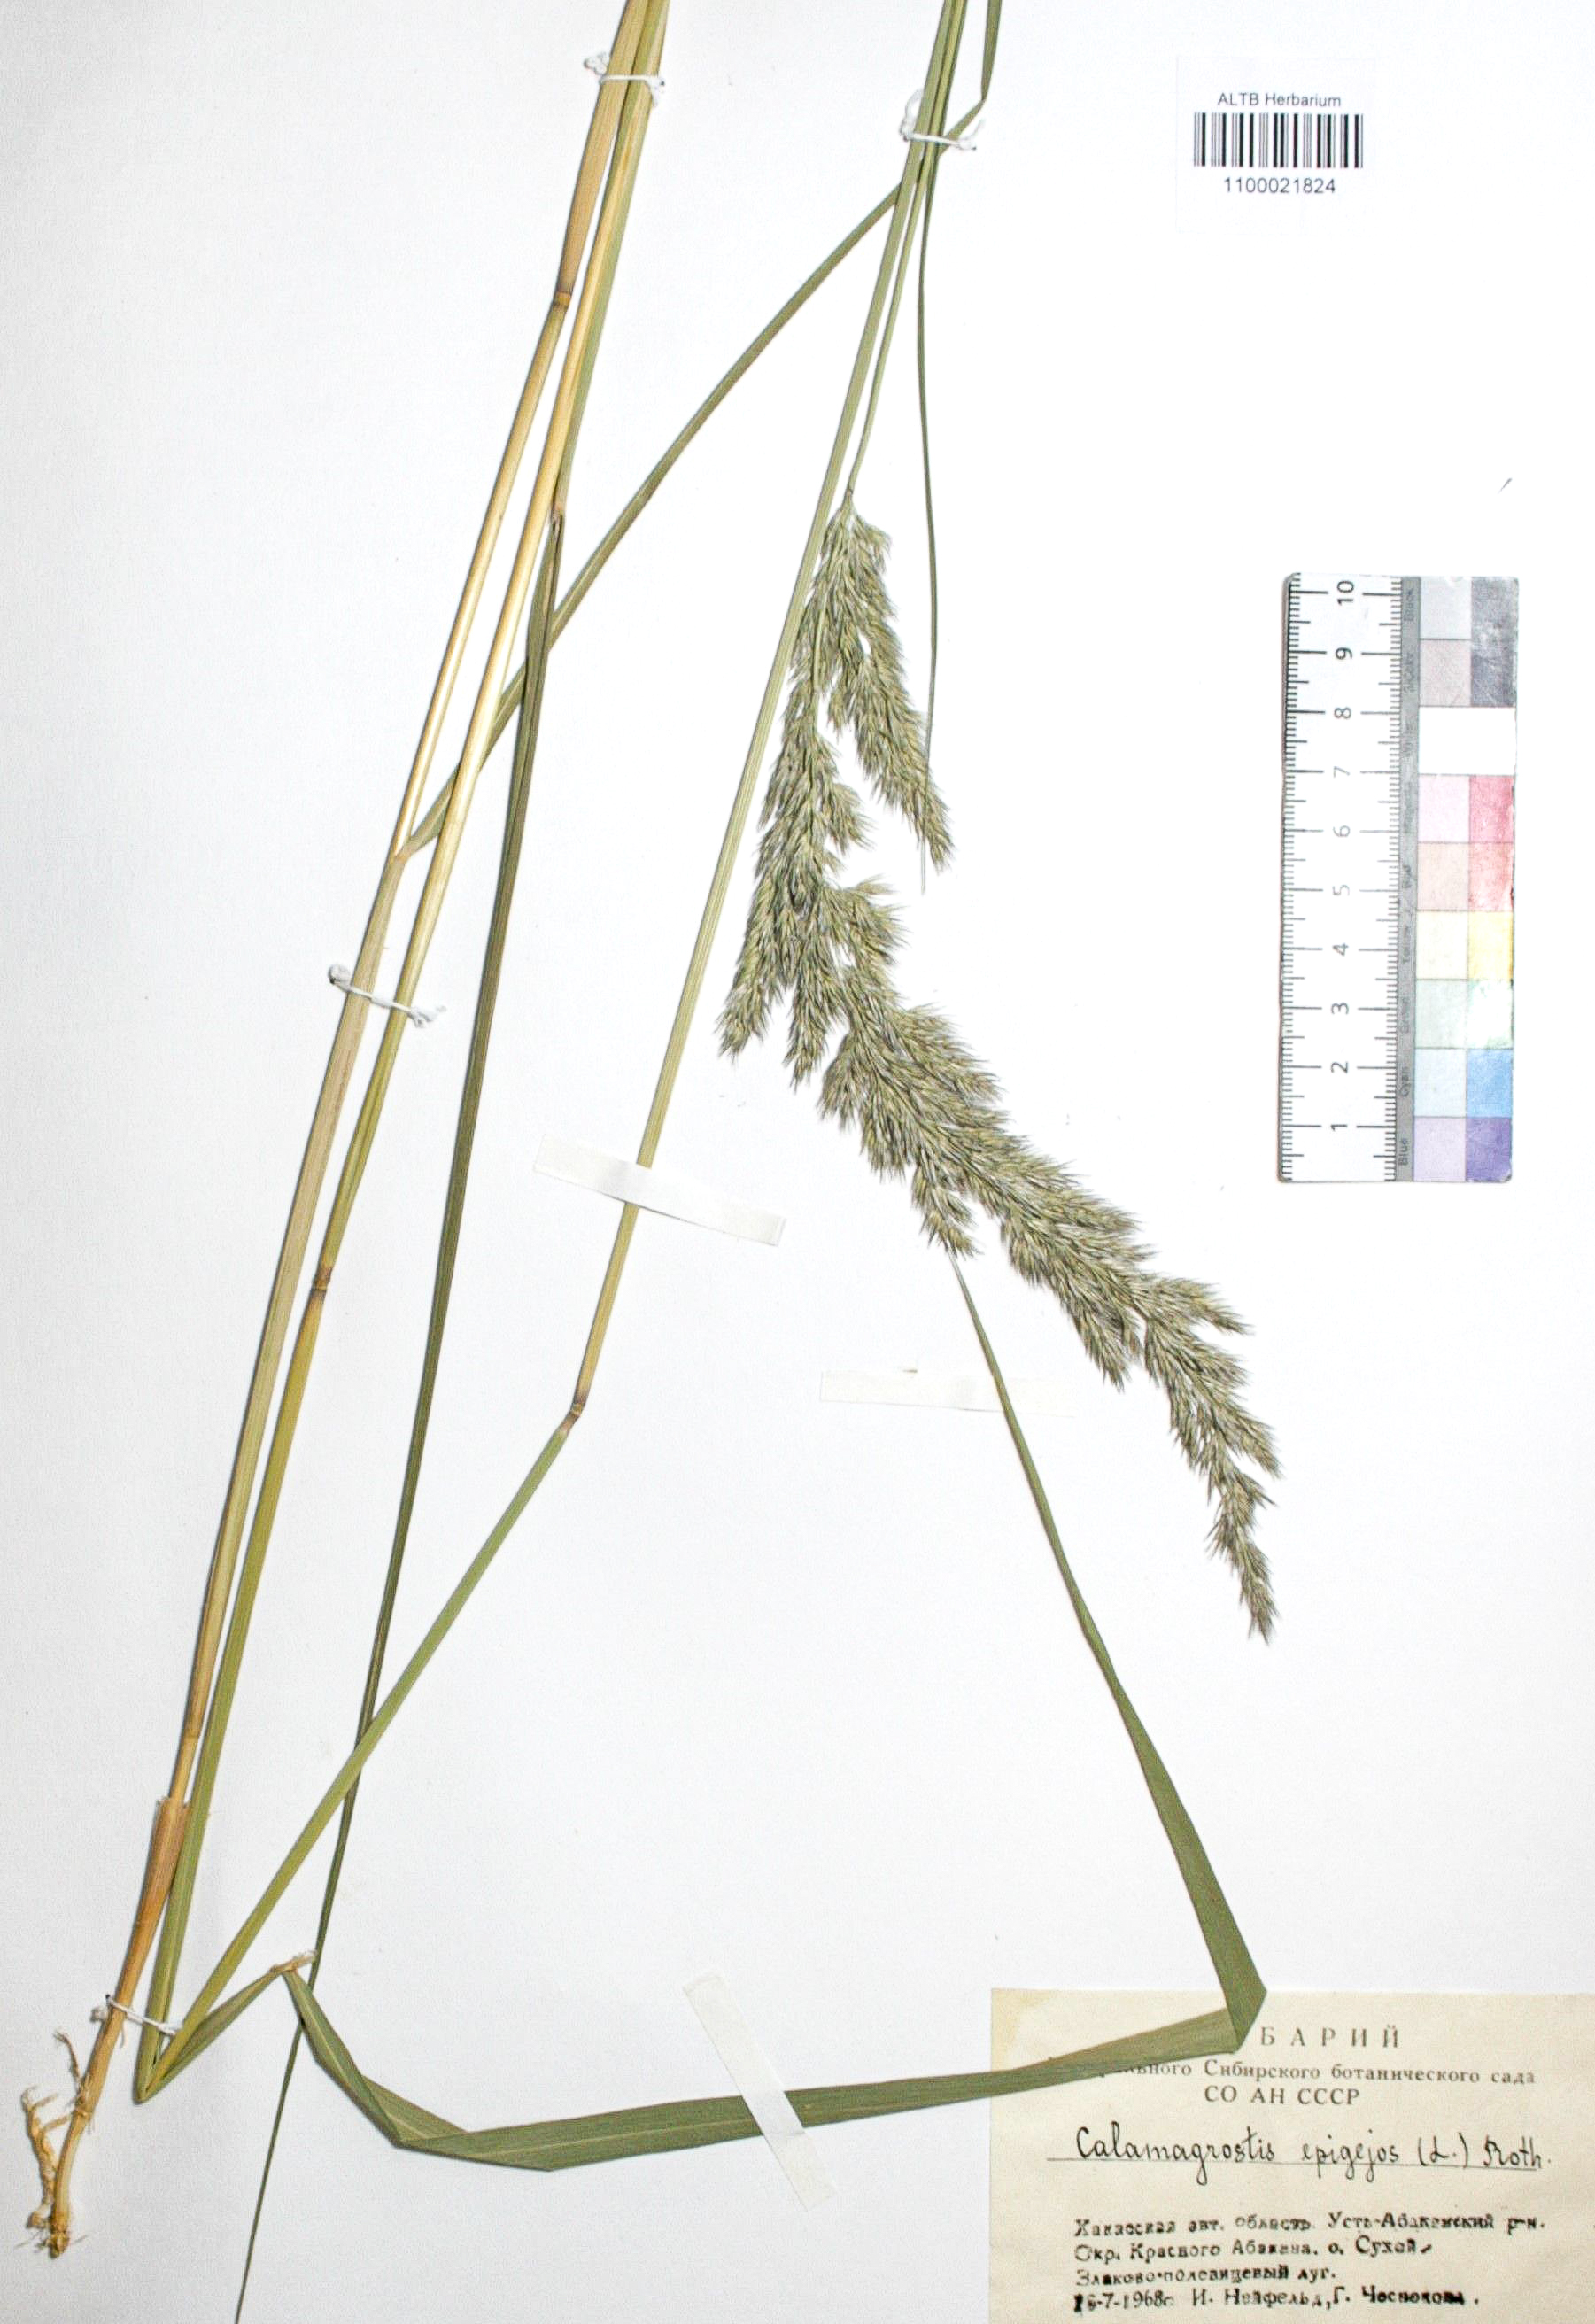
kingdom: Plantae
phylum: Tracheophyta
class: Liliopsida
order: Poales
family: Poaceae
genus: Calamagrostis
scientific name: Calamagrostis epigejos
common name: Wood small-reed
